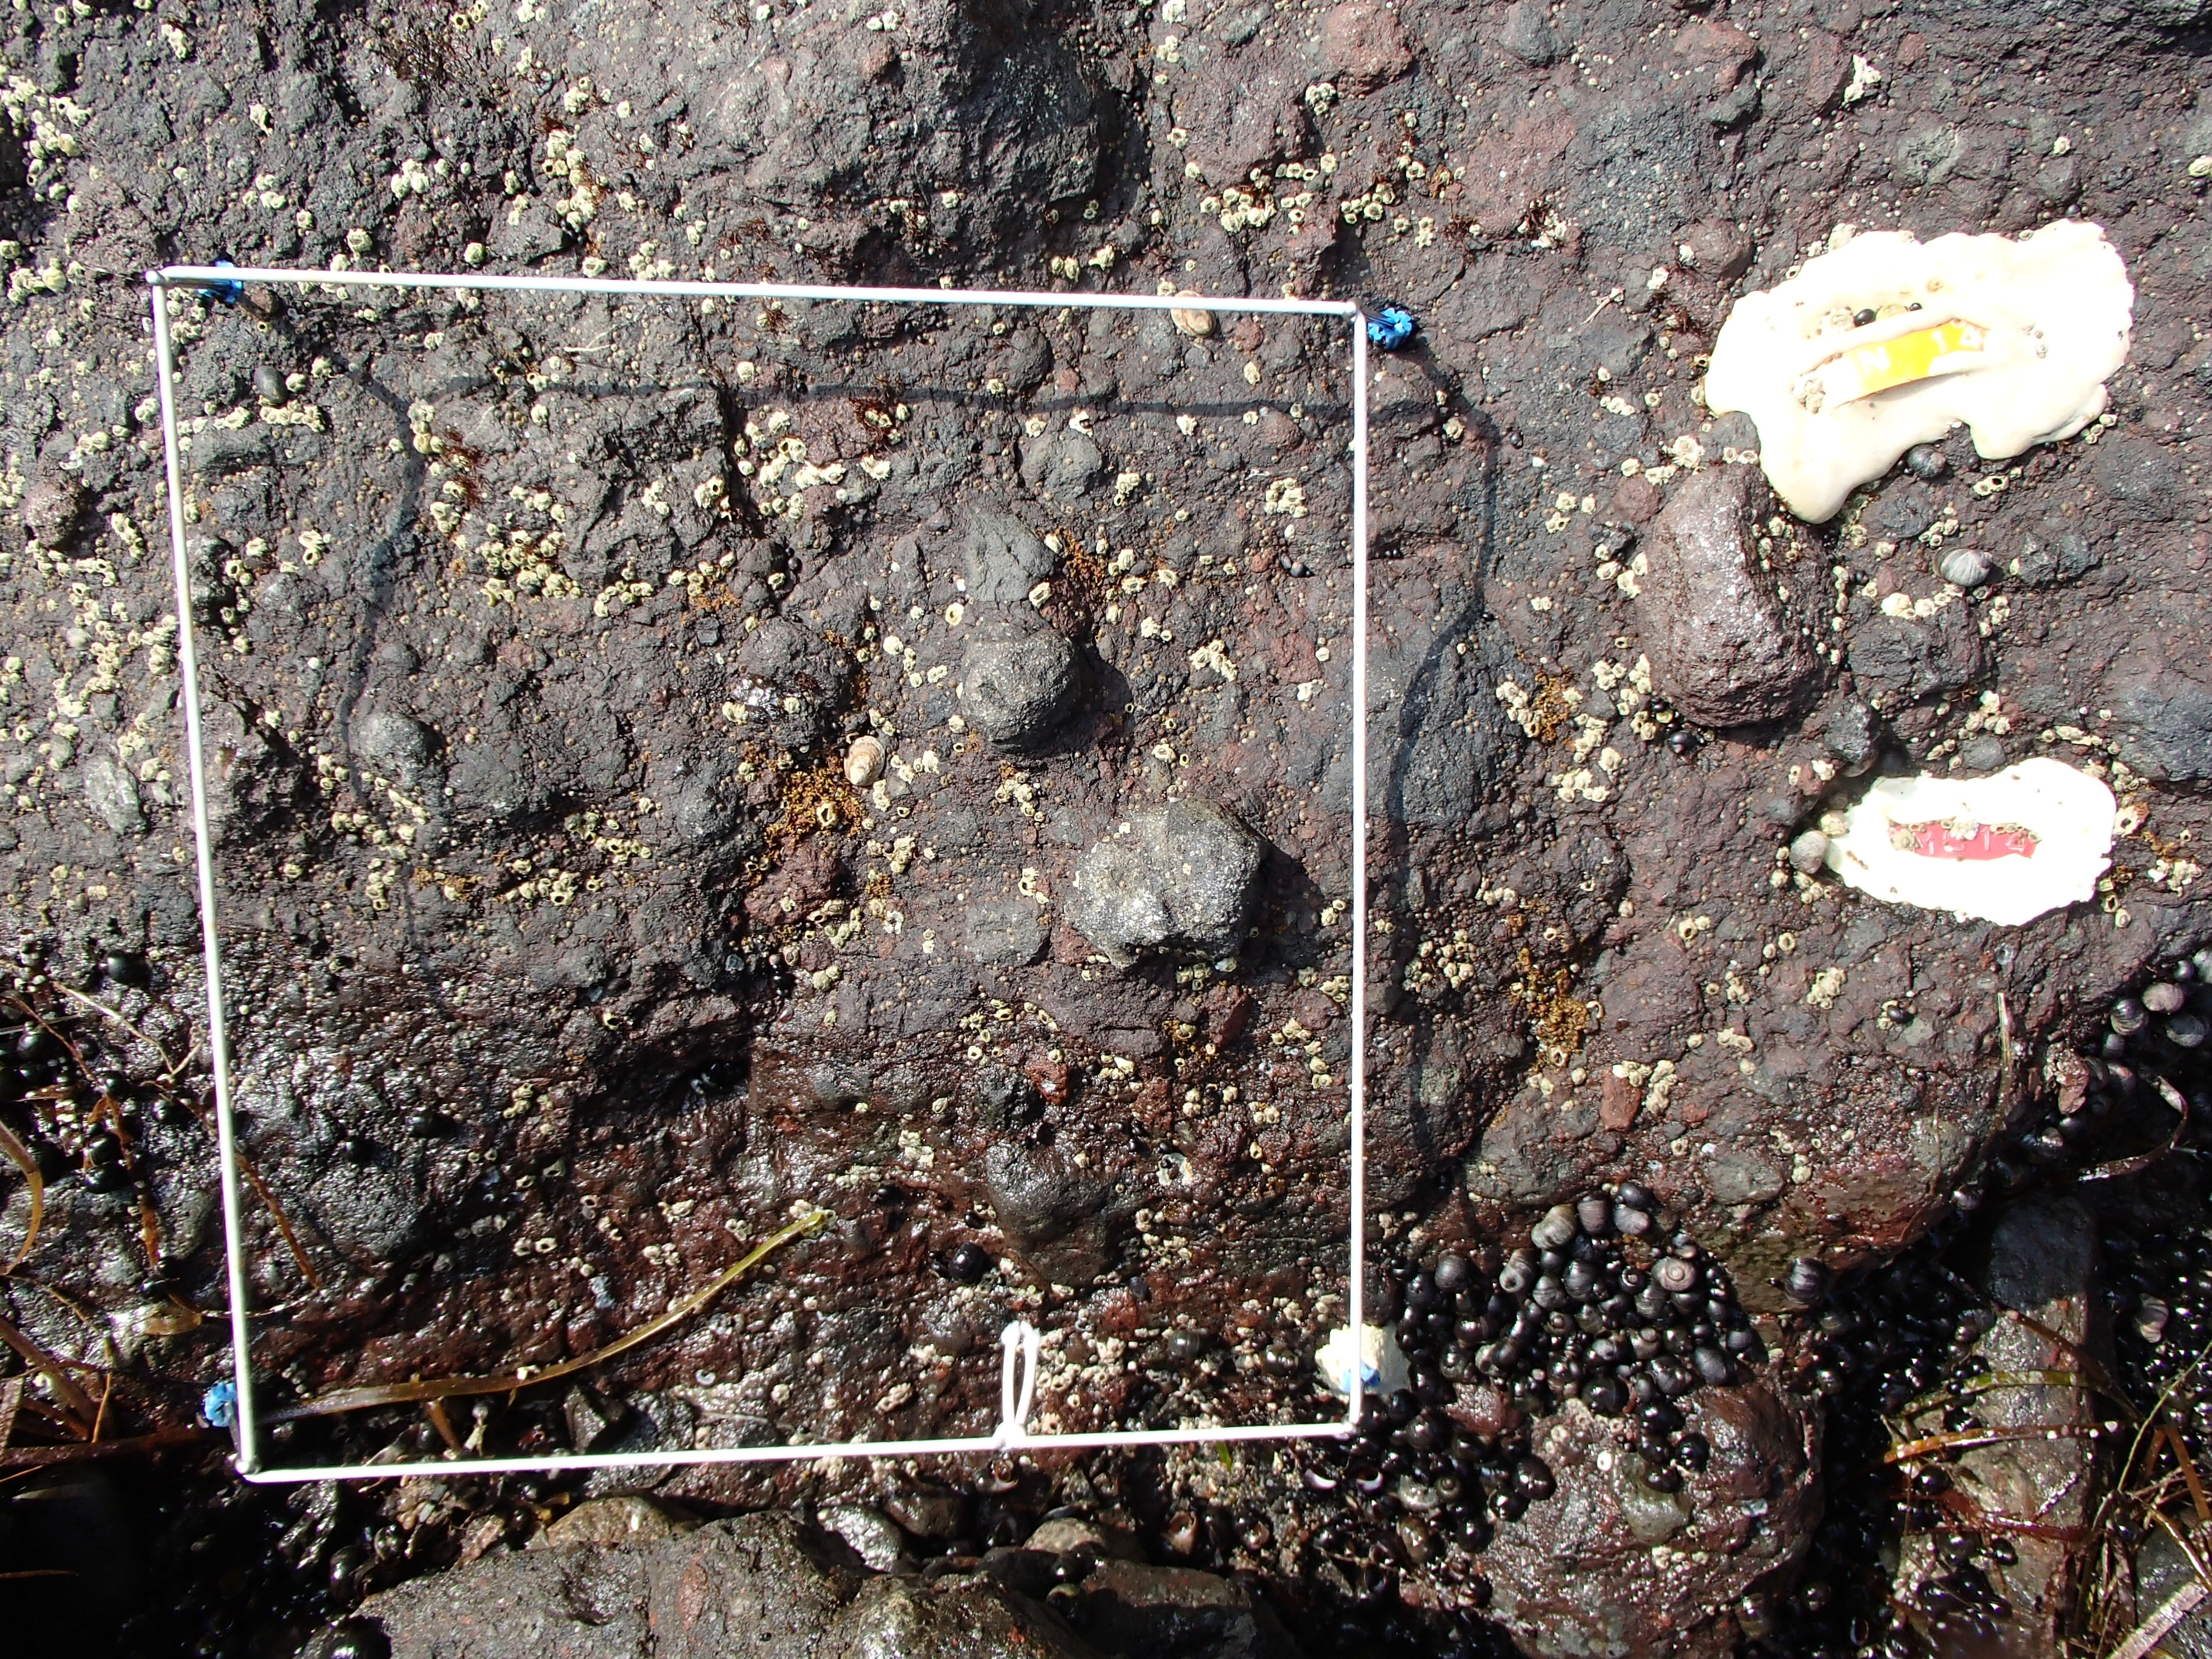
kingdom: Plantae
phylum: Rhodophyta
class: Florideophyceae
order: Gigartinales
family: Endocladiaceae
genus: Gloiopeltis
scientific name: Gloiopeltis furcata
